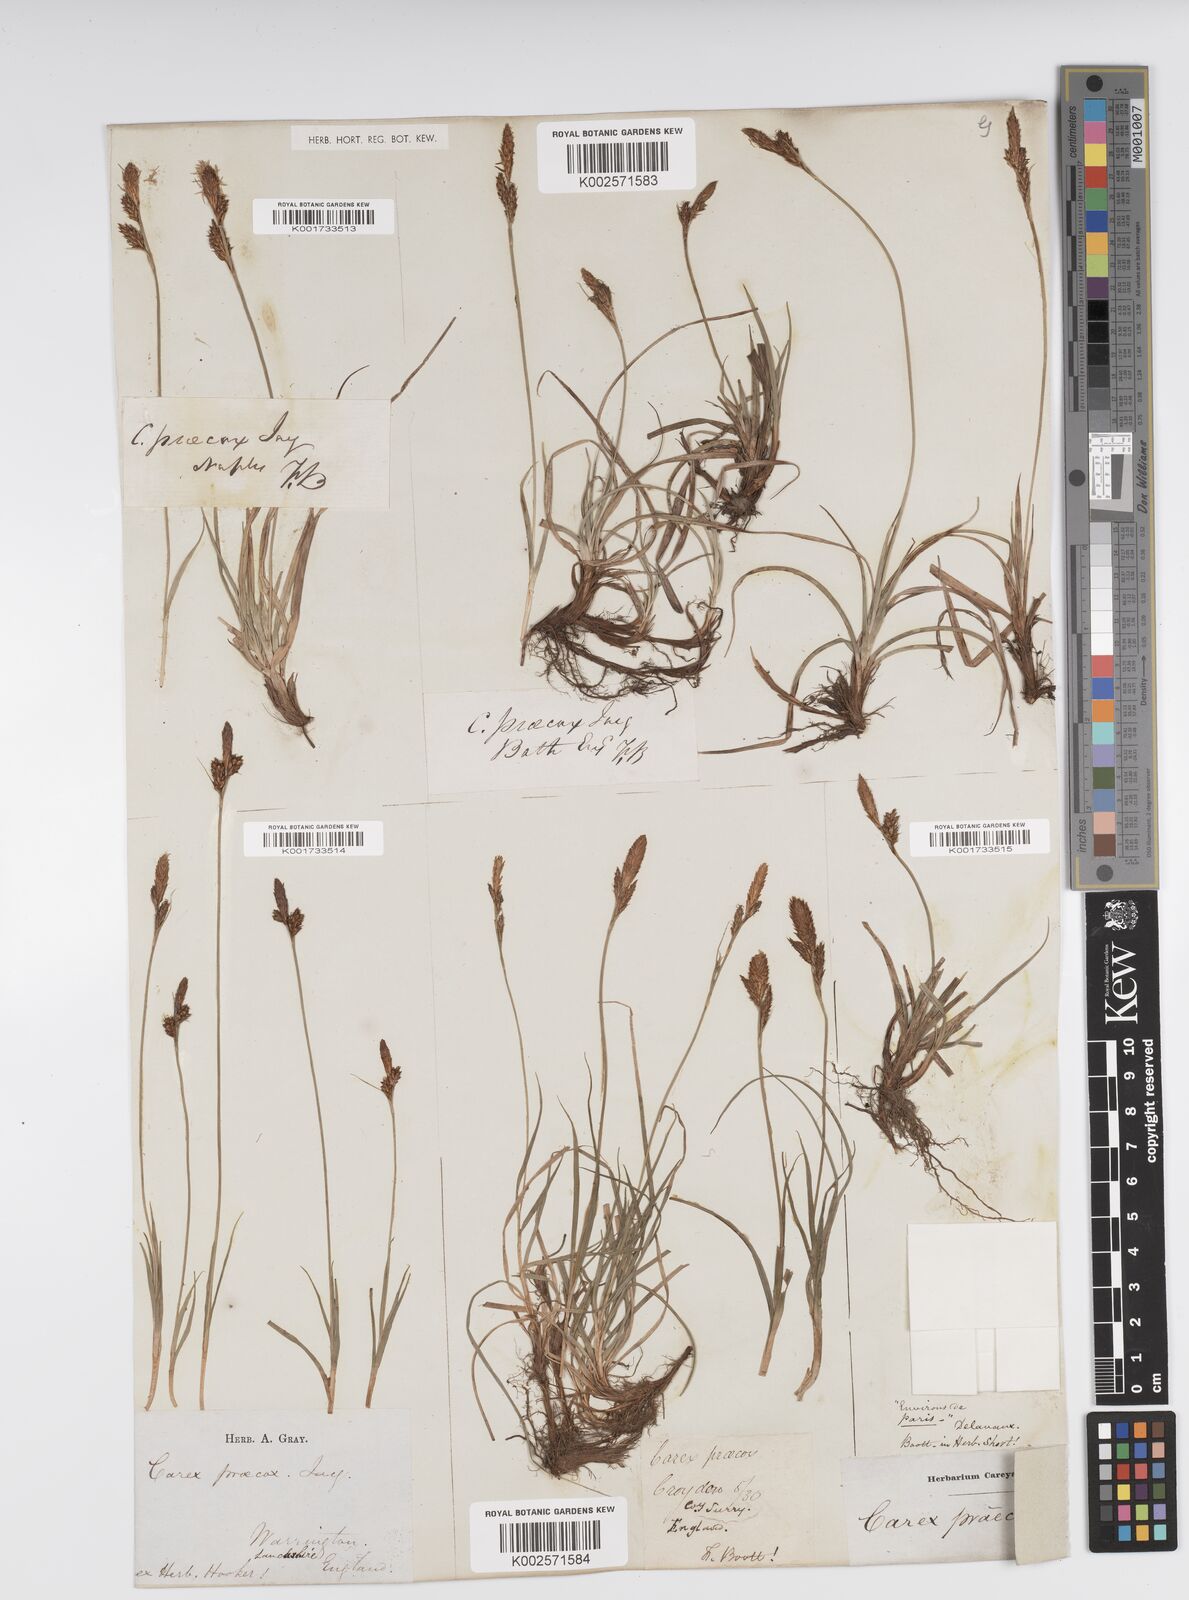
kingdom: Plantae
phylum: Tracheophyta
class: Liliopsida
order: Poales
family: Cyperaceae
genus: Carex
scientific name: Carex caryophyllea
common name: Spring sedge
